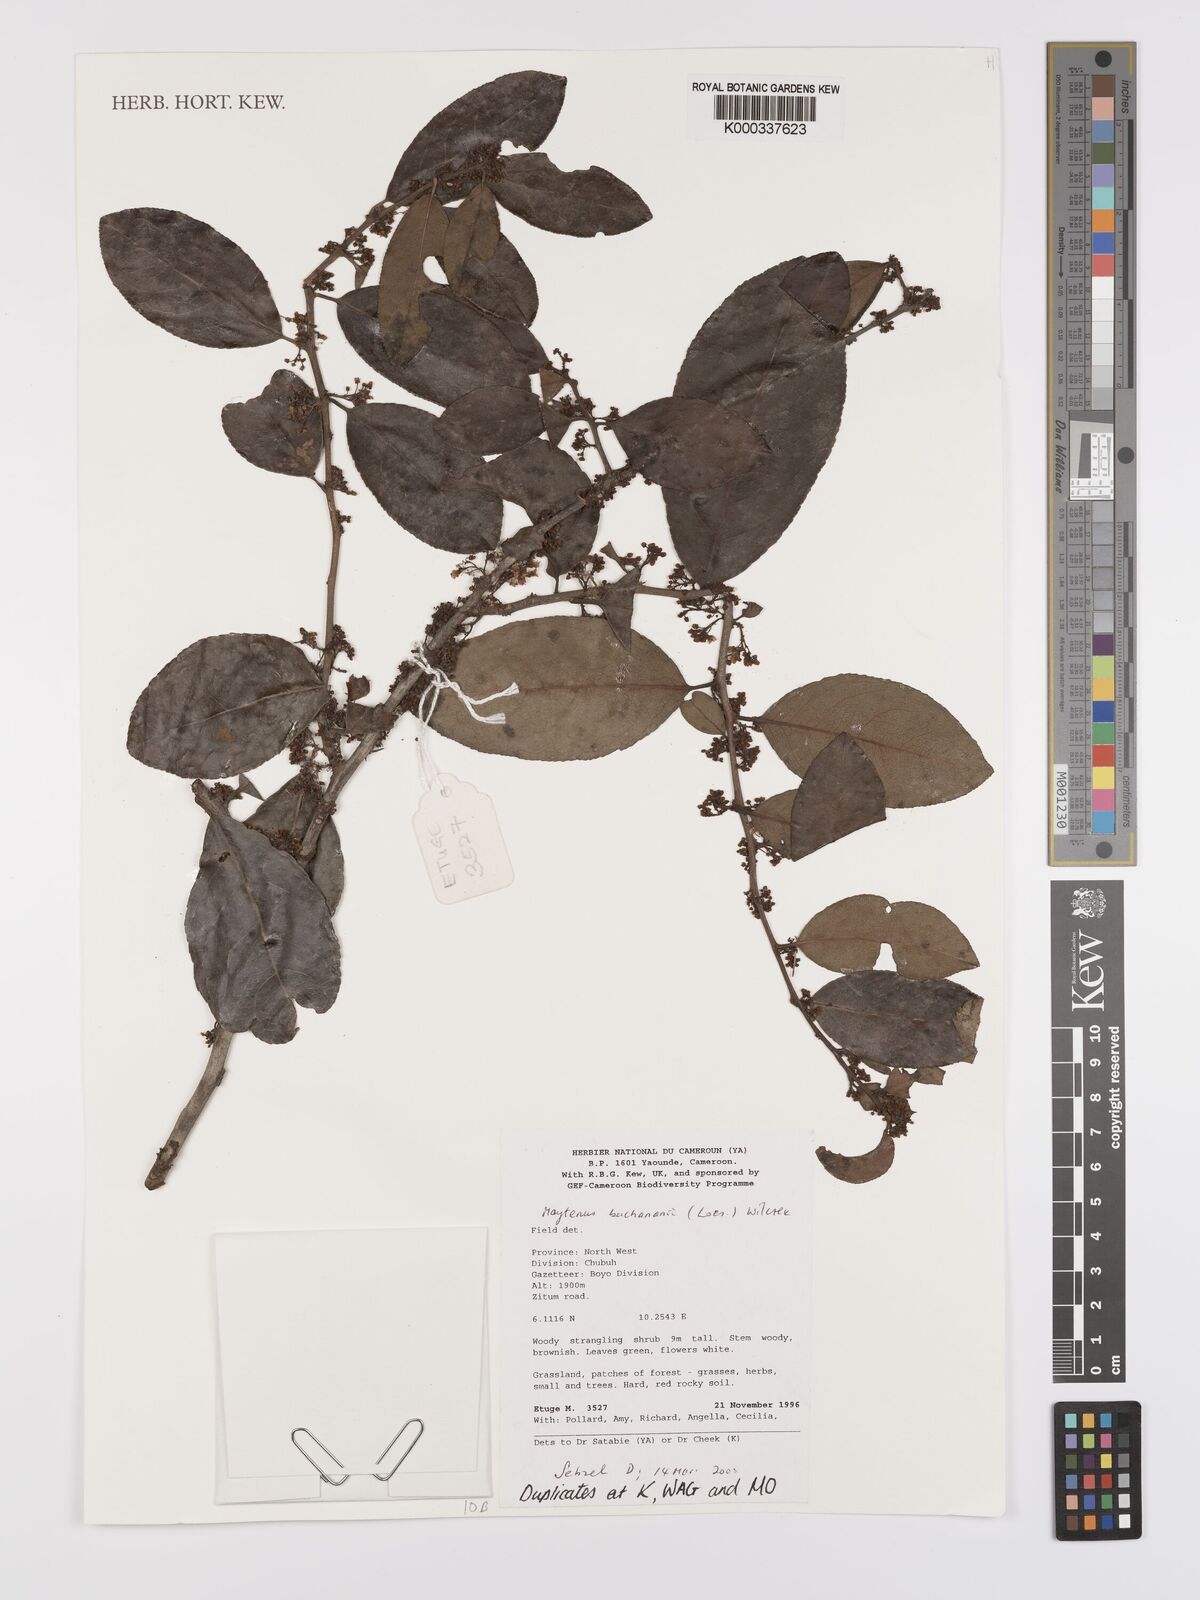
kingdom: Plantae
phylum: Tracheophyta
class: Magnoliopsida
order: Celastrales
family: Celastraceae
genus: Gymnosporia
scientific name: Gymnosporia buchananii
